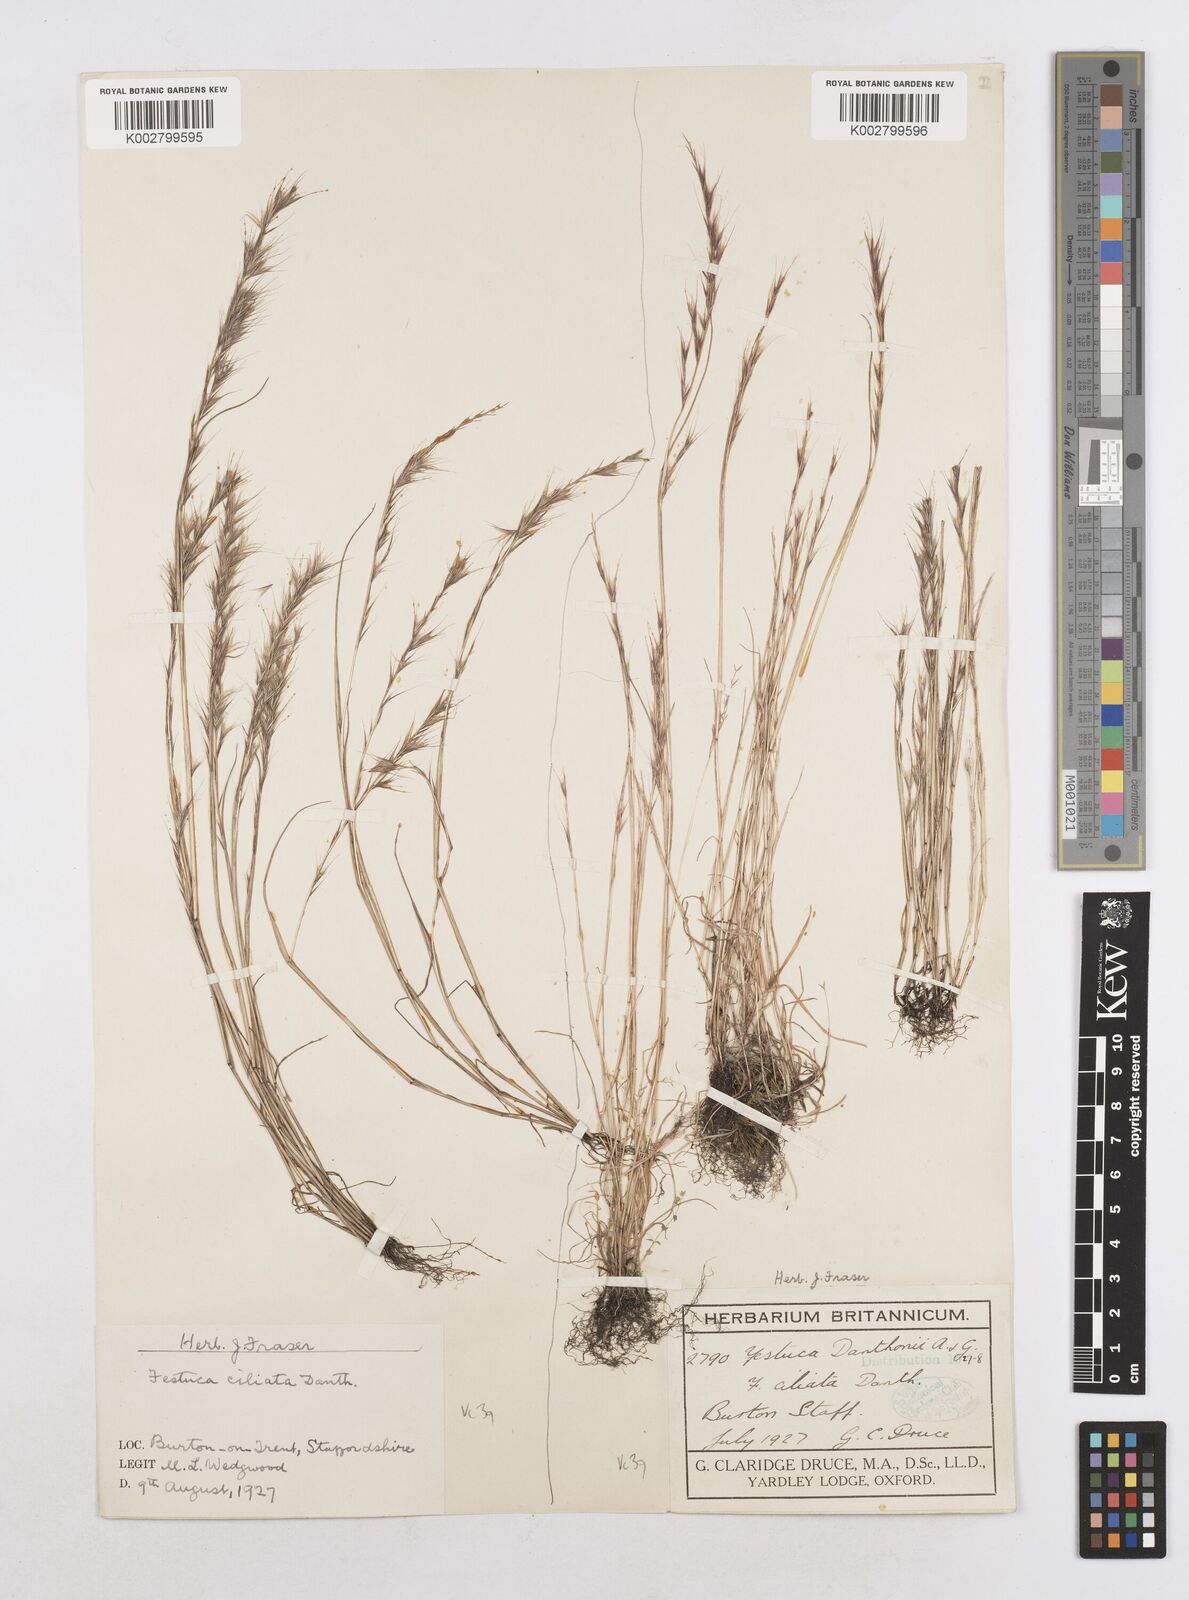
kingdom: Plantae
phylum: Tracheophyta
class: Liliopsida
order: Poales
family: Poaceae
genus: Festuca
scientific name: Festuca
